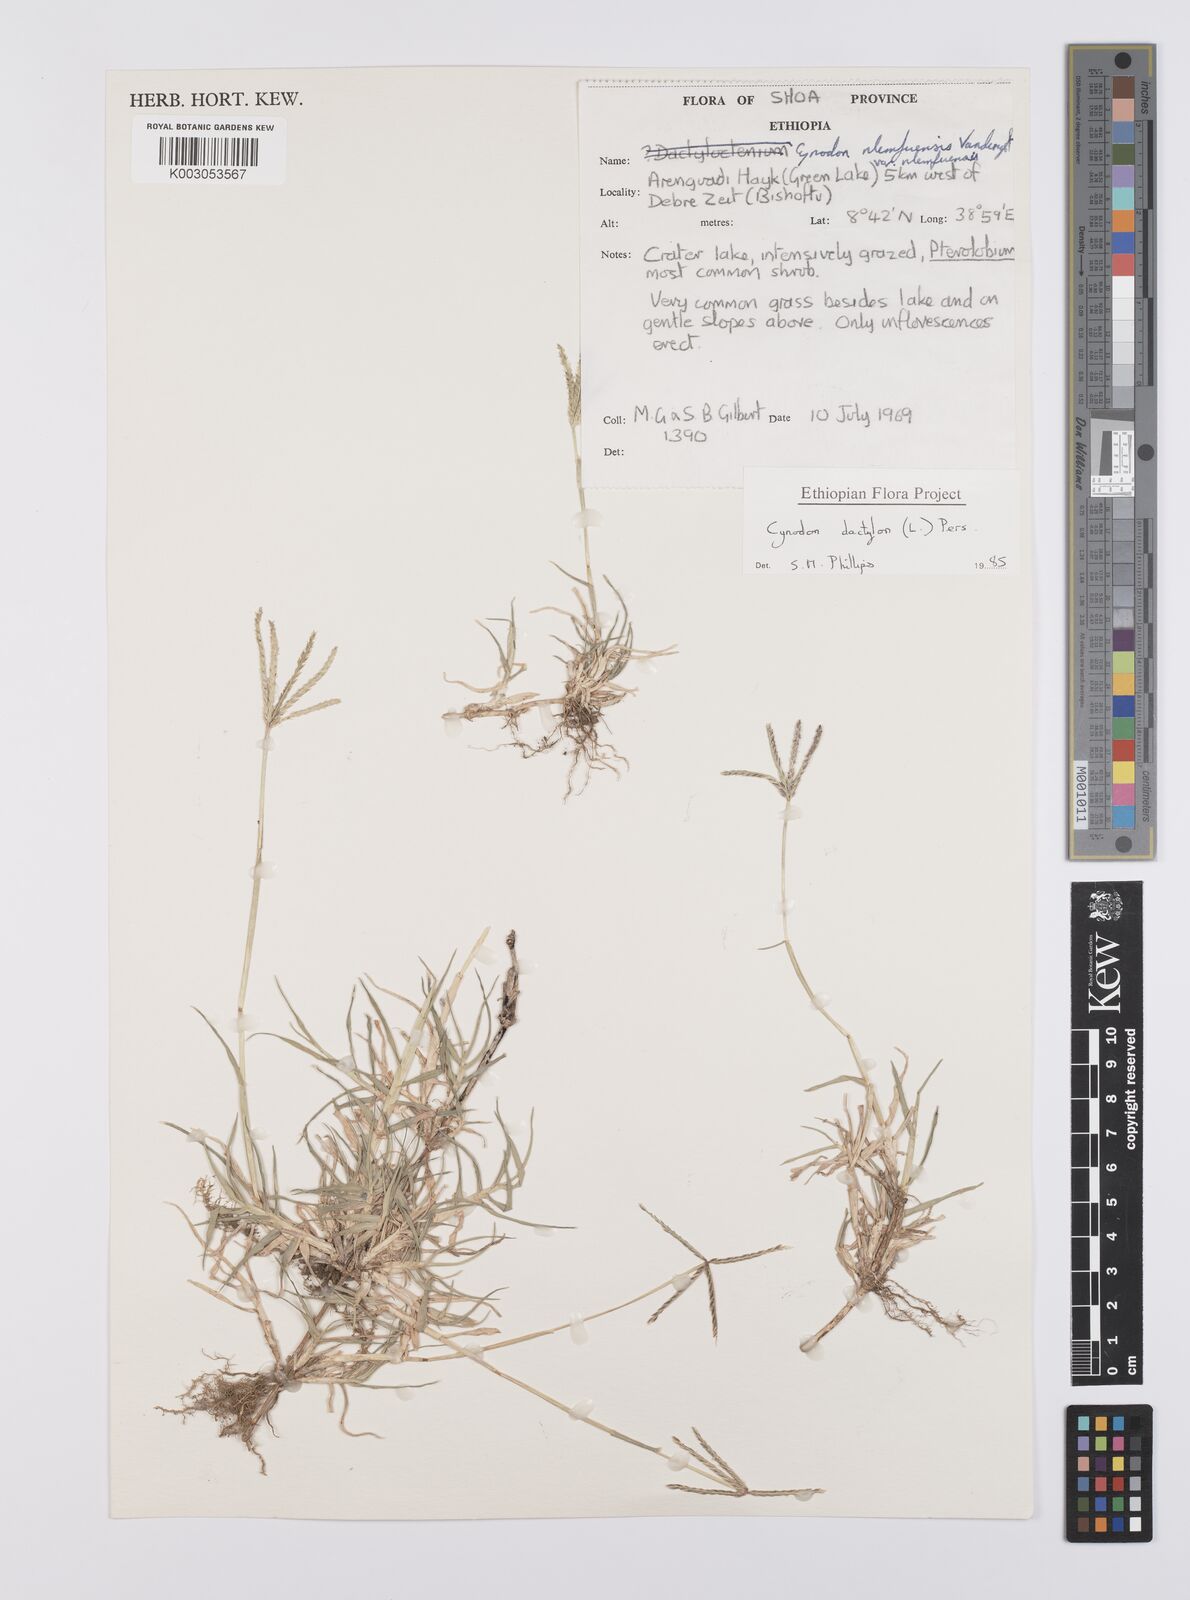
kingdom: Plantae
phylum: Tracheophyta
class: Liliopsida
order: Poales
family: Poaceae
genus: Cynodon
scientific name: Cynodon dactylon
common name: Bermuda grass
